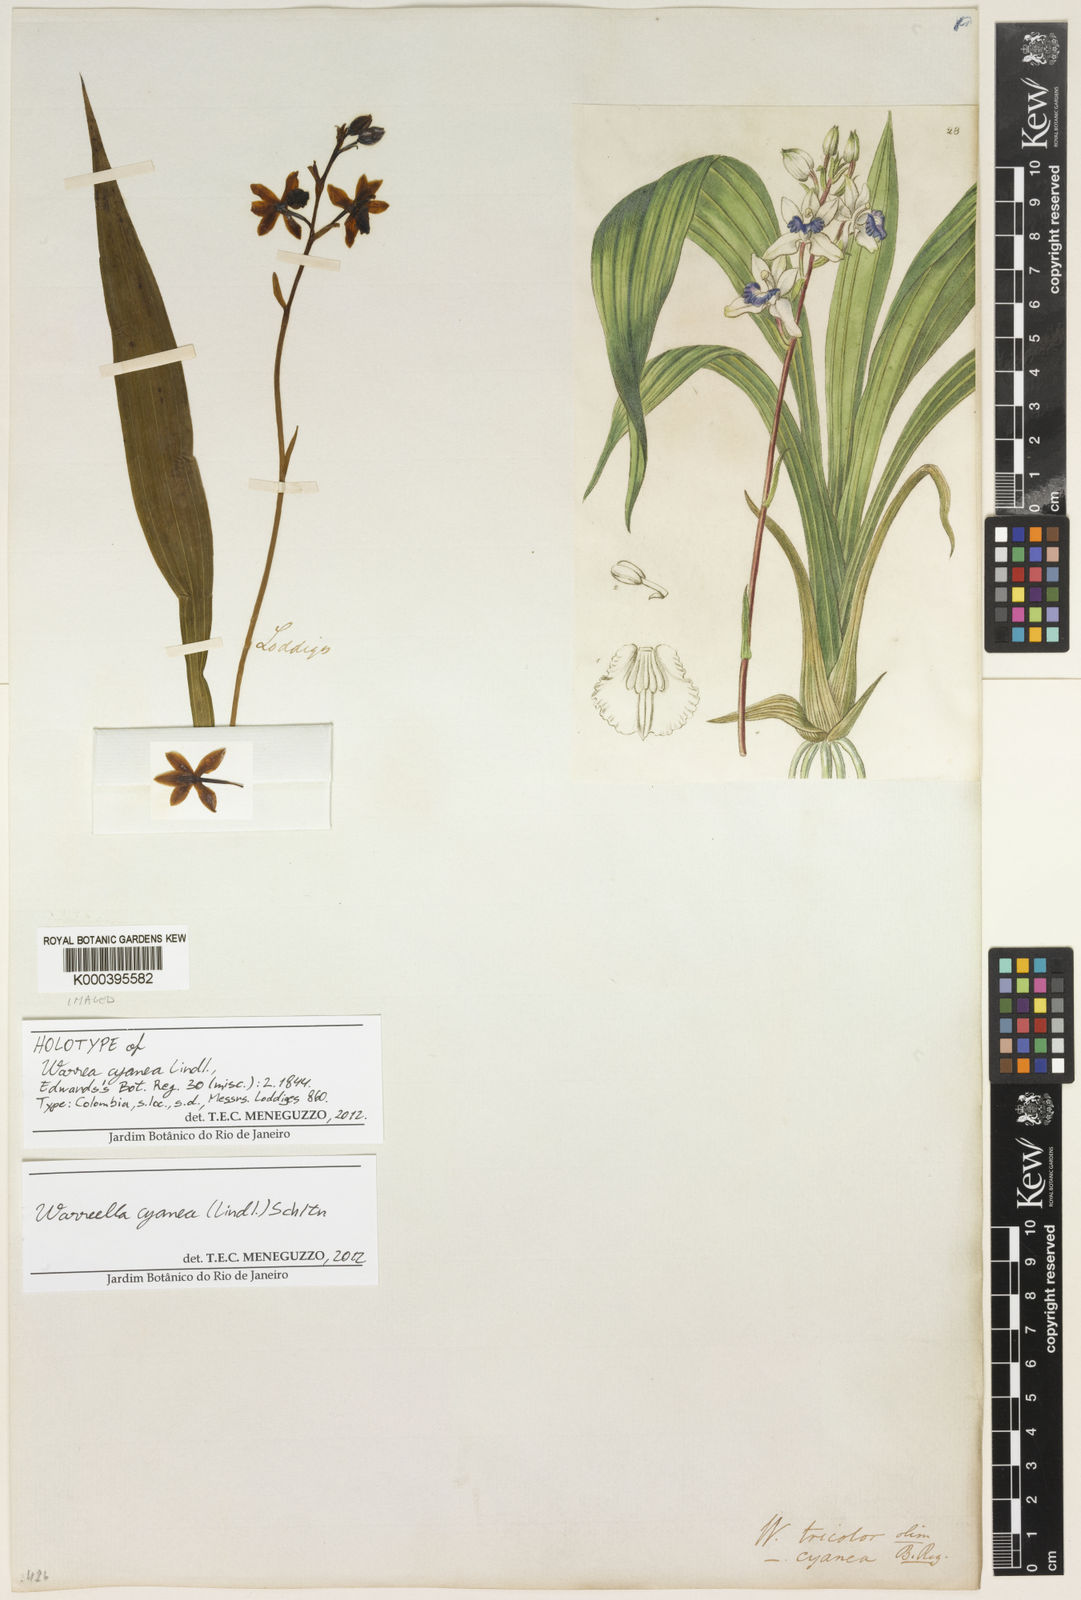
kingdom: Plantae
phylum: Tracheophyta
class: Liliopsida
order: Asparagales
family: Orchidaceae
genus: Warreella
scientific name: Warreella cyanea
